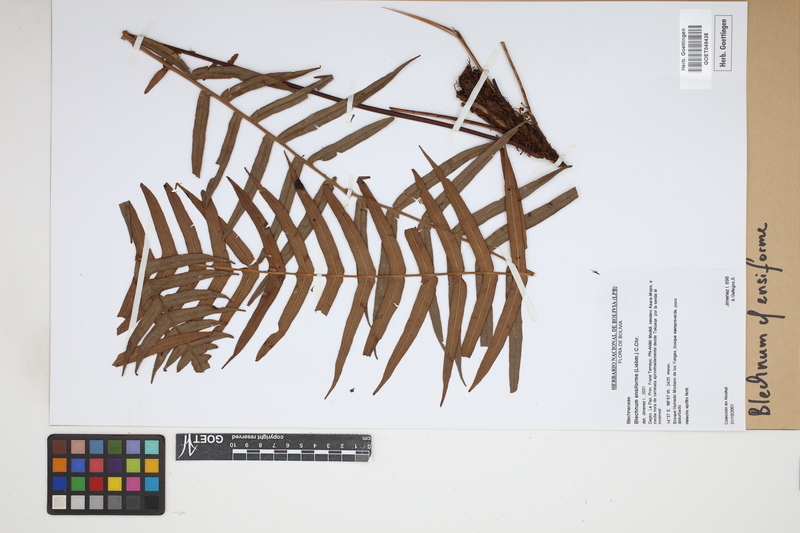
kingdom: Plantae
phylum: Tracheophyta
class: Polypodiopsida
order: Polypodiales
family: Blechnaceae
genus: Lomaridium
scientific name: Lomaridium ensiforme
